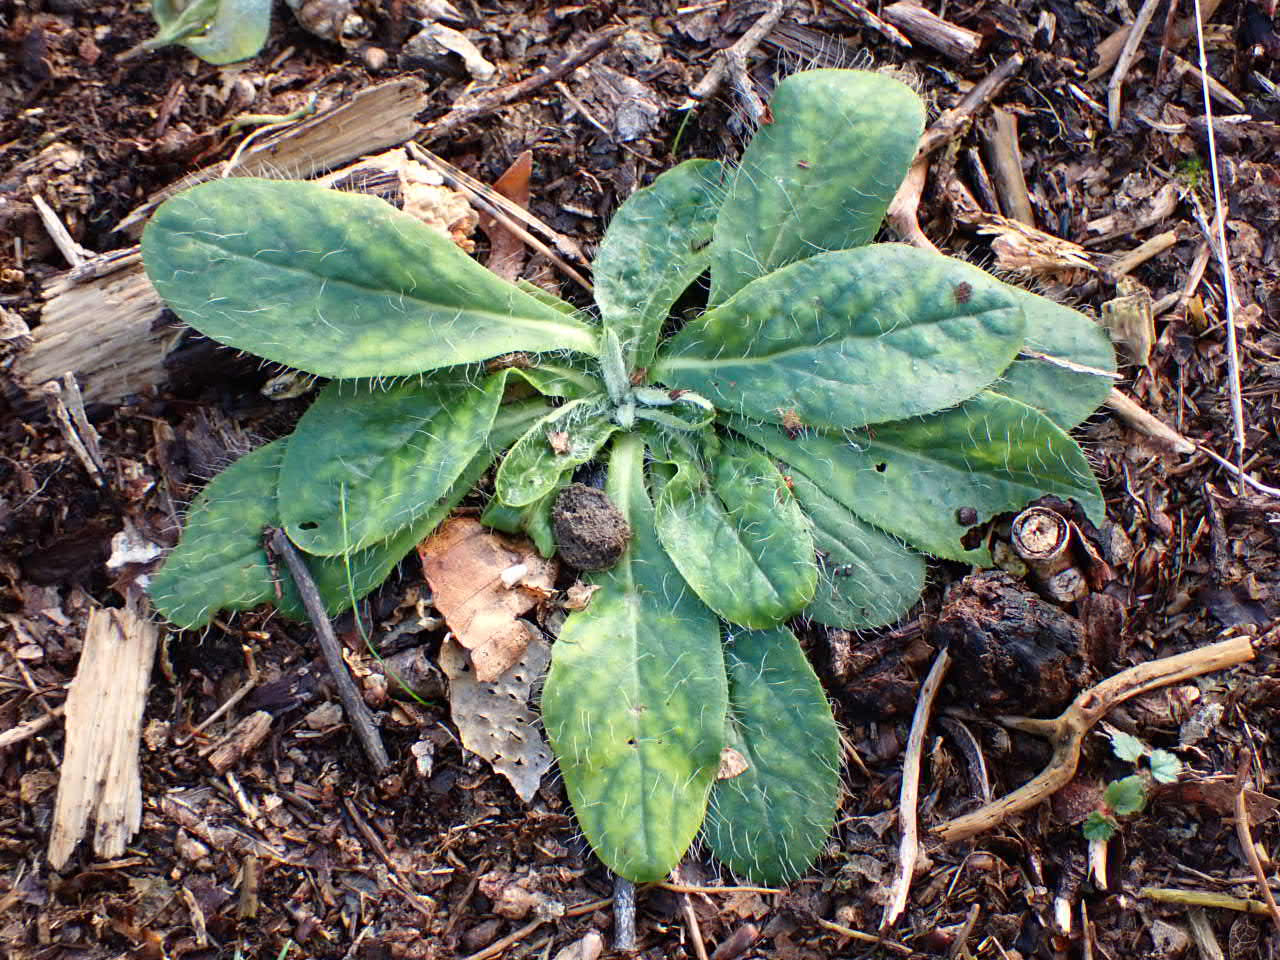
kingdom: Plantae
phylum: Tracheophyta
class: Magnoliopsida
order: Asterales
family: Asteraceae
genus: Pilosella
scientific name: Pilosella officinarum
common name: Håret høgeurt
